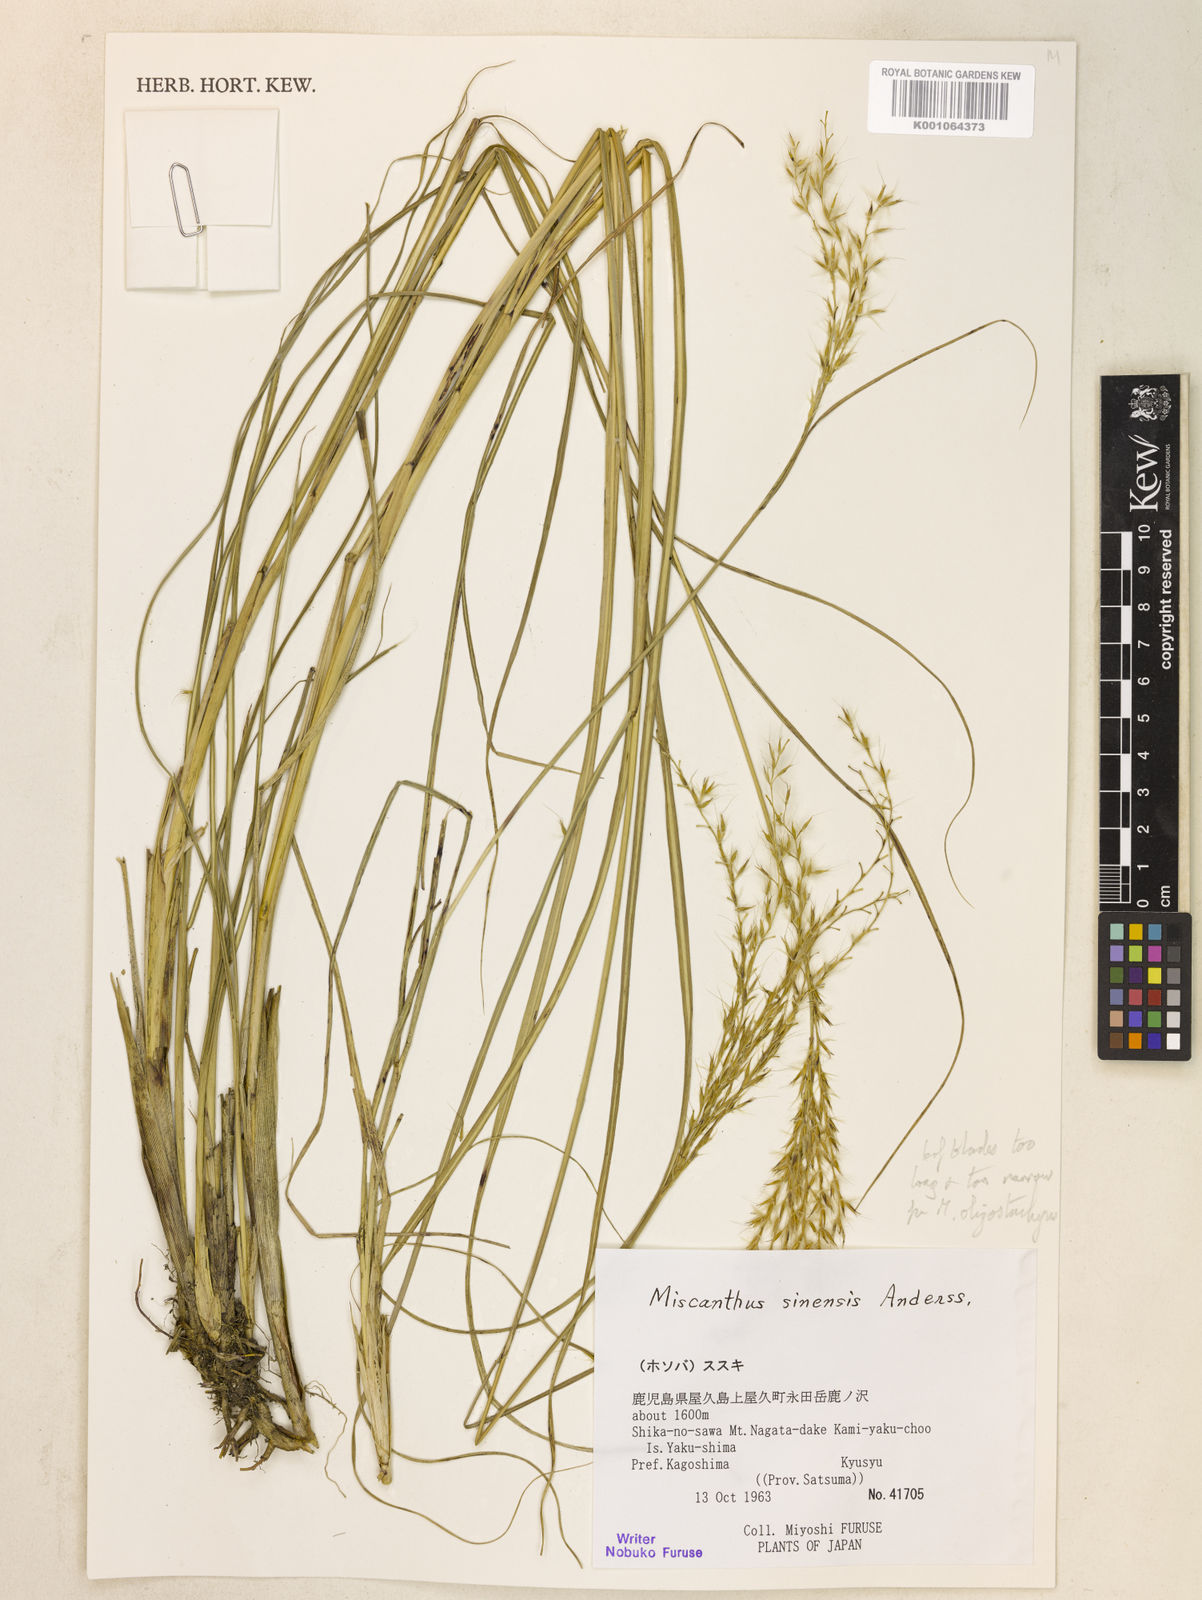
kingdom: Plantae
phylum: Tracheophyta
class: Liliopsida
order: Poales
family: Poaceae
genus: Miscanthus
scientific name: Miscanthus sinensis
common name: Chinese silvergrass
